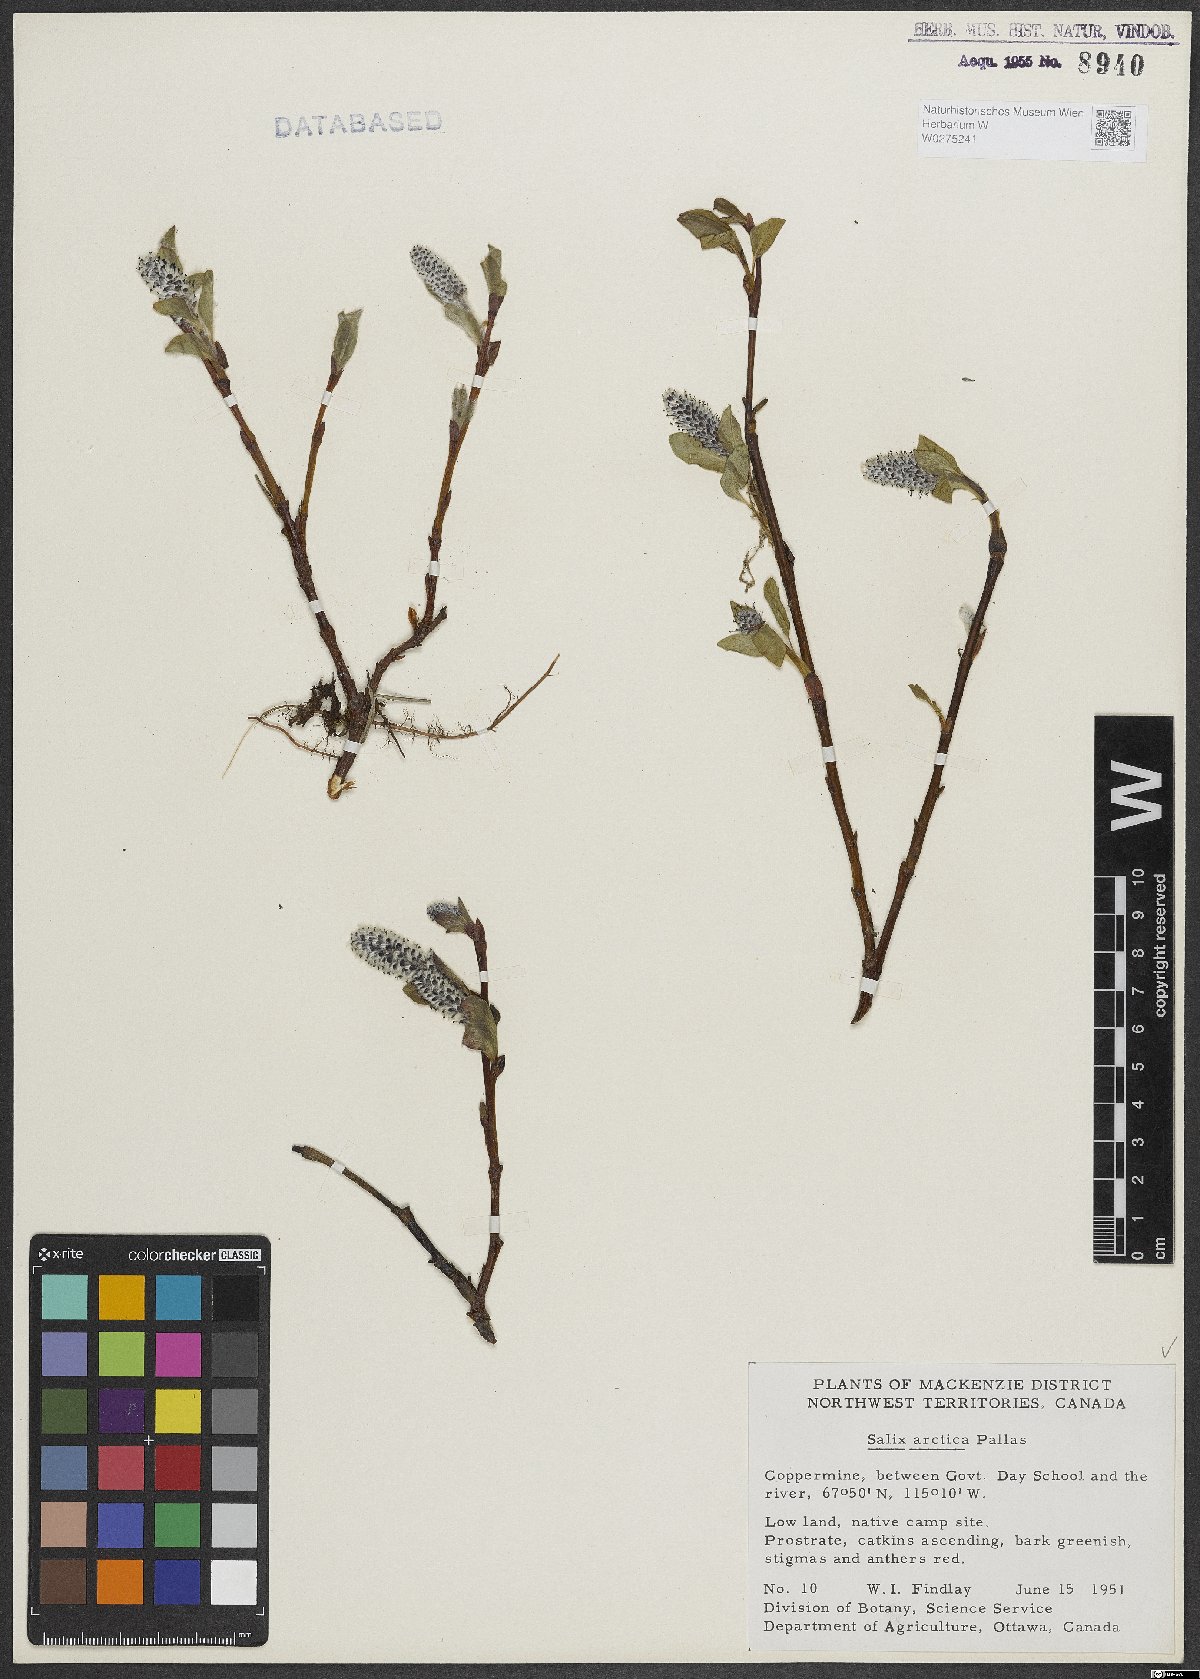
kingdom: Plantae
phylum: Tracheophyta
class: Magnoliopsida
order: Malpighiales
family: Salicaceae
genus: Salix
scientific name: Salix arctica
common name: Arctic willow
